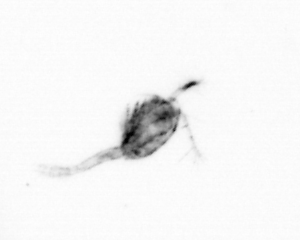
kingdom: Animalia
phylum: Arthropoda
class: Copepoda
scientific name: Copepoda
